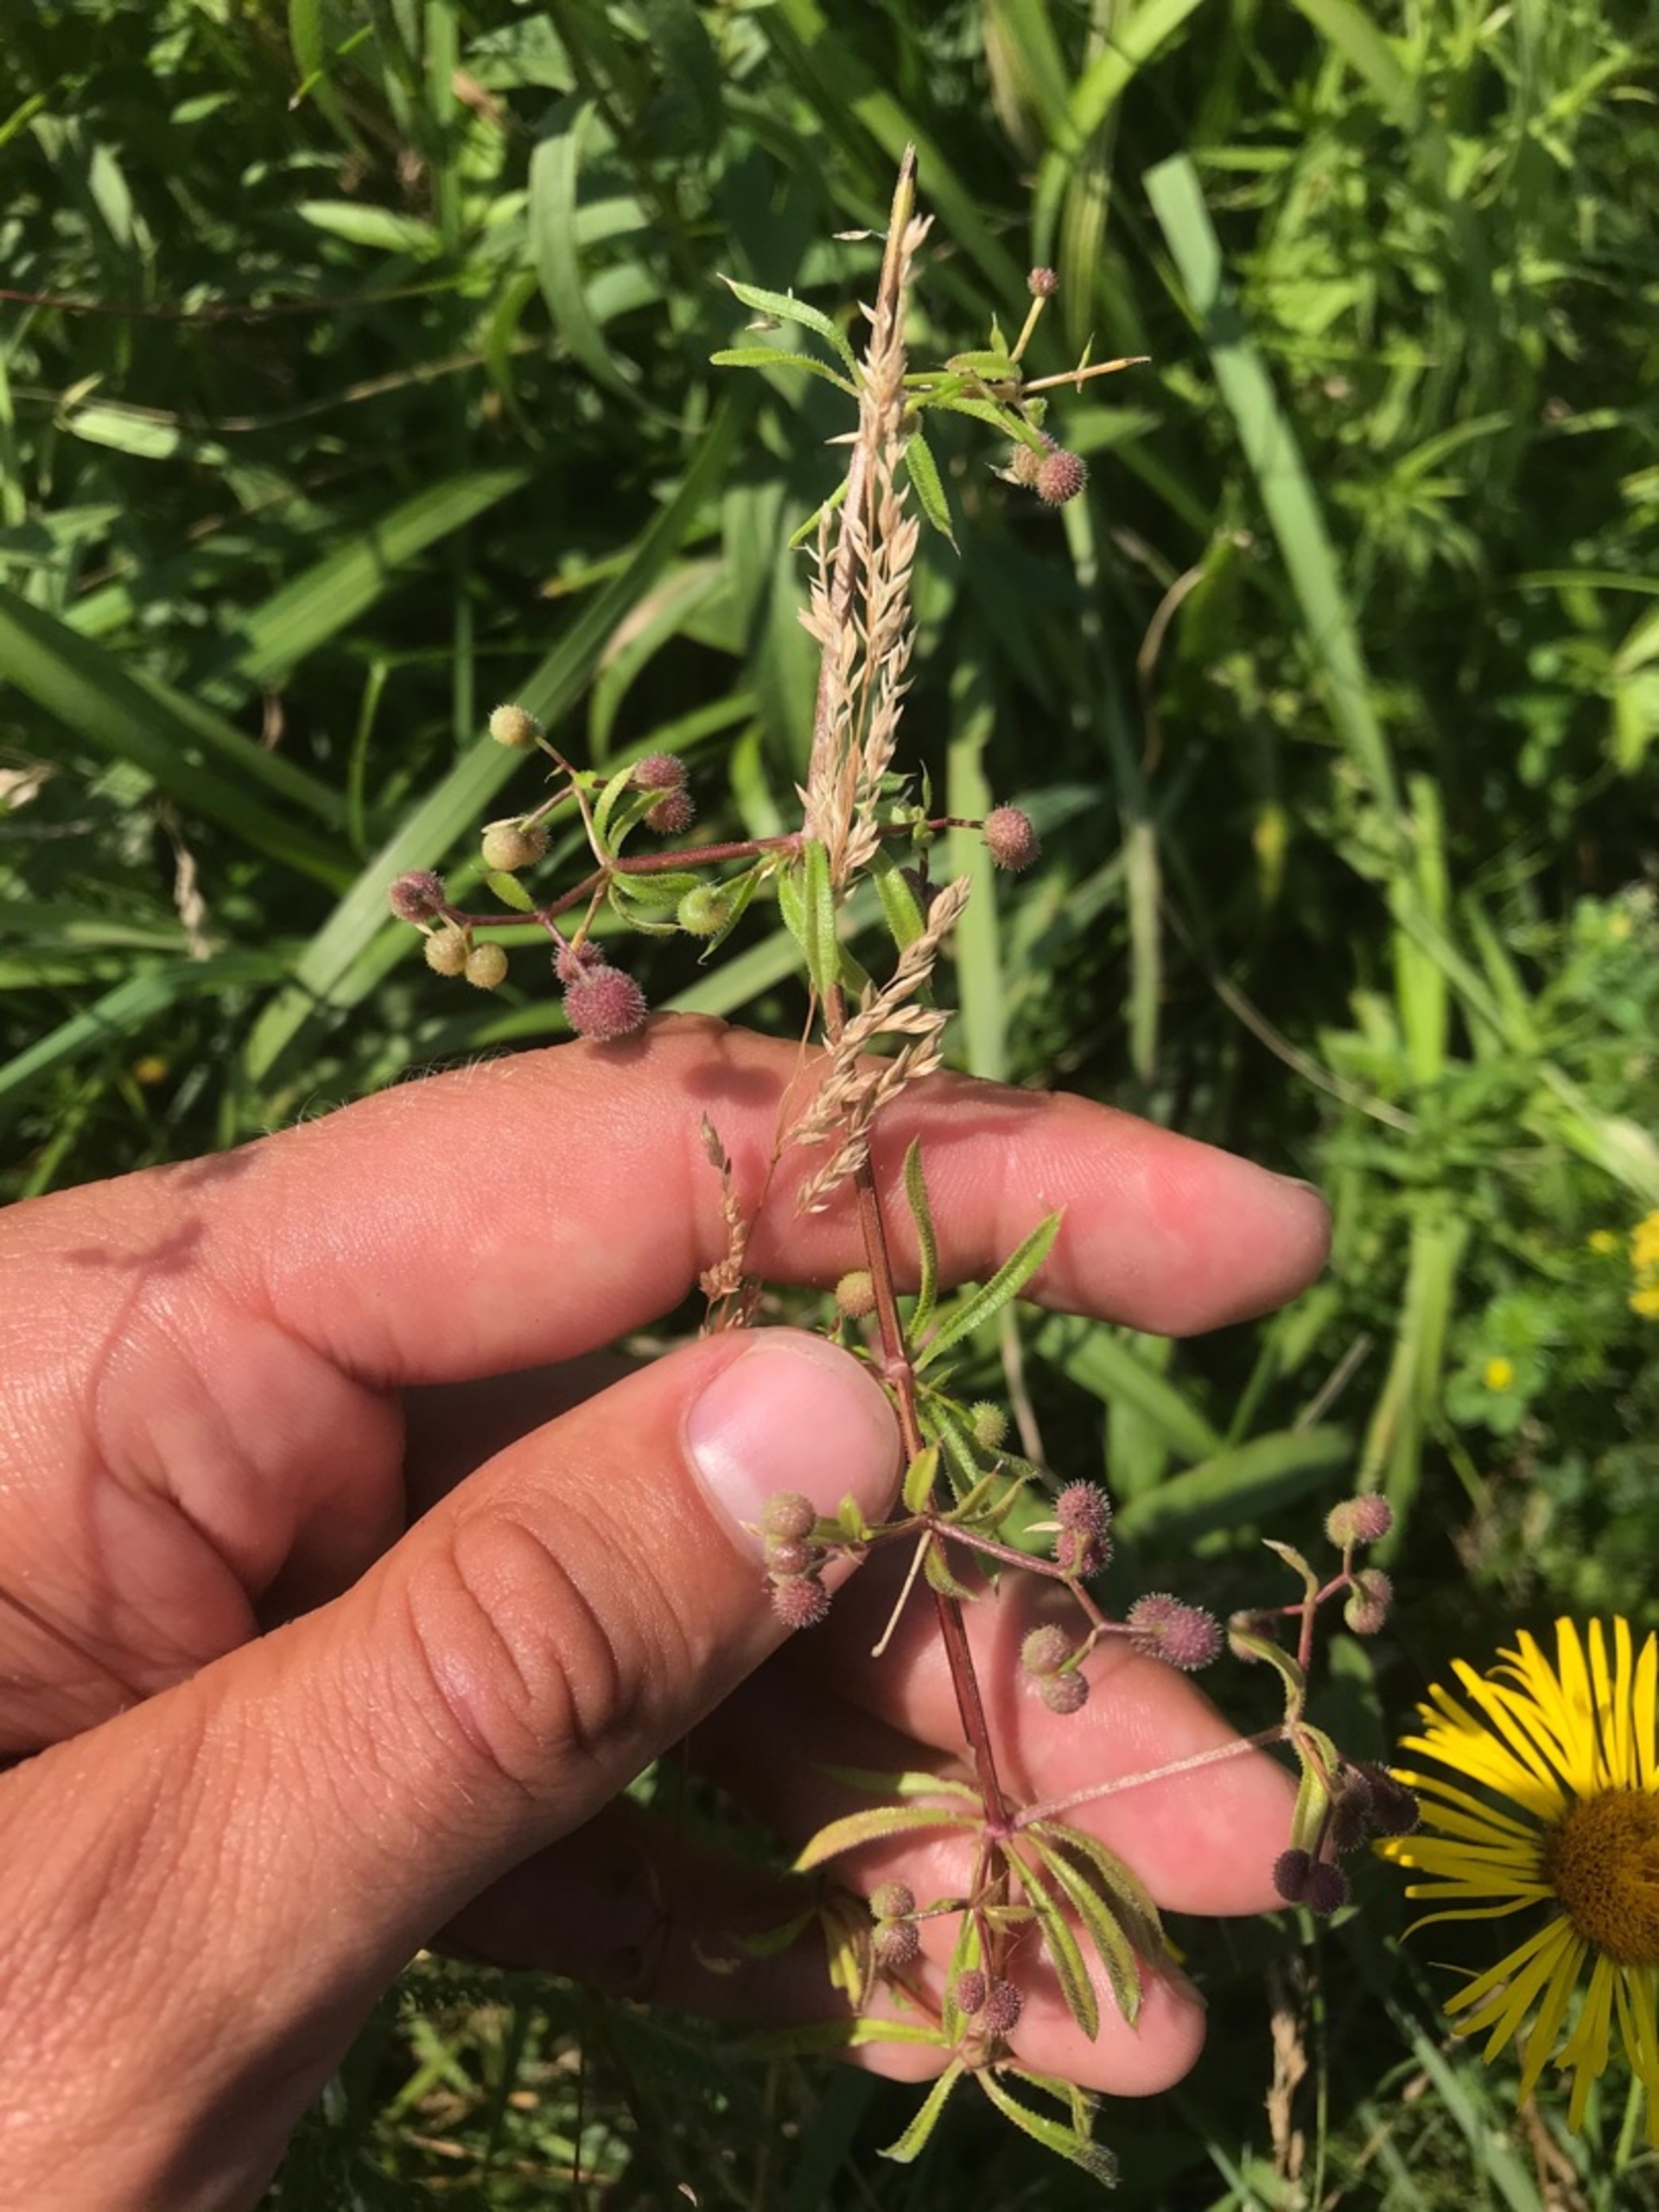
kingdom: Plantae
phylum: Tracheophyta
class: Magnoliopsida
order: Gentianales
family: Rubiaceae
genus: Galium
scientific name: Galium aparine
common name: Burre-snerre
